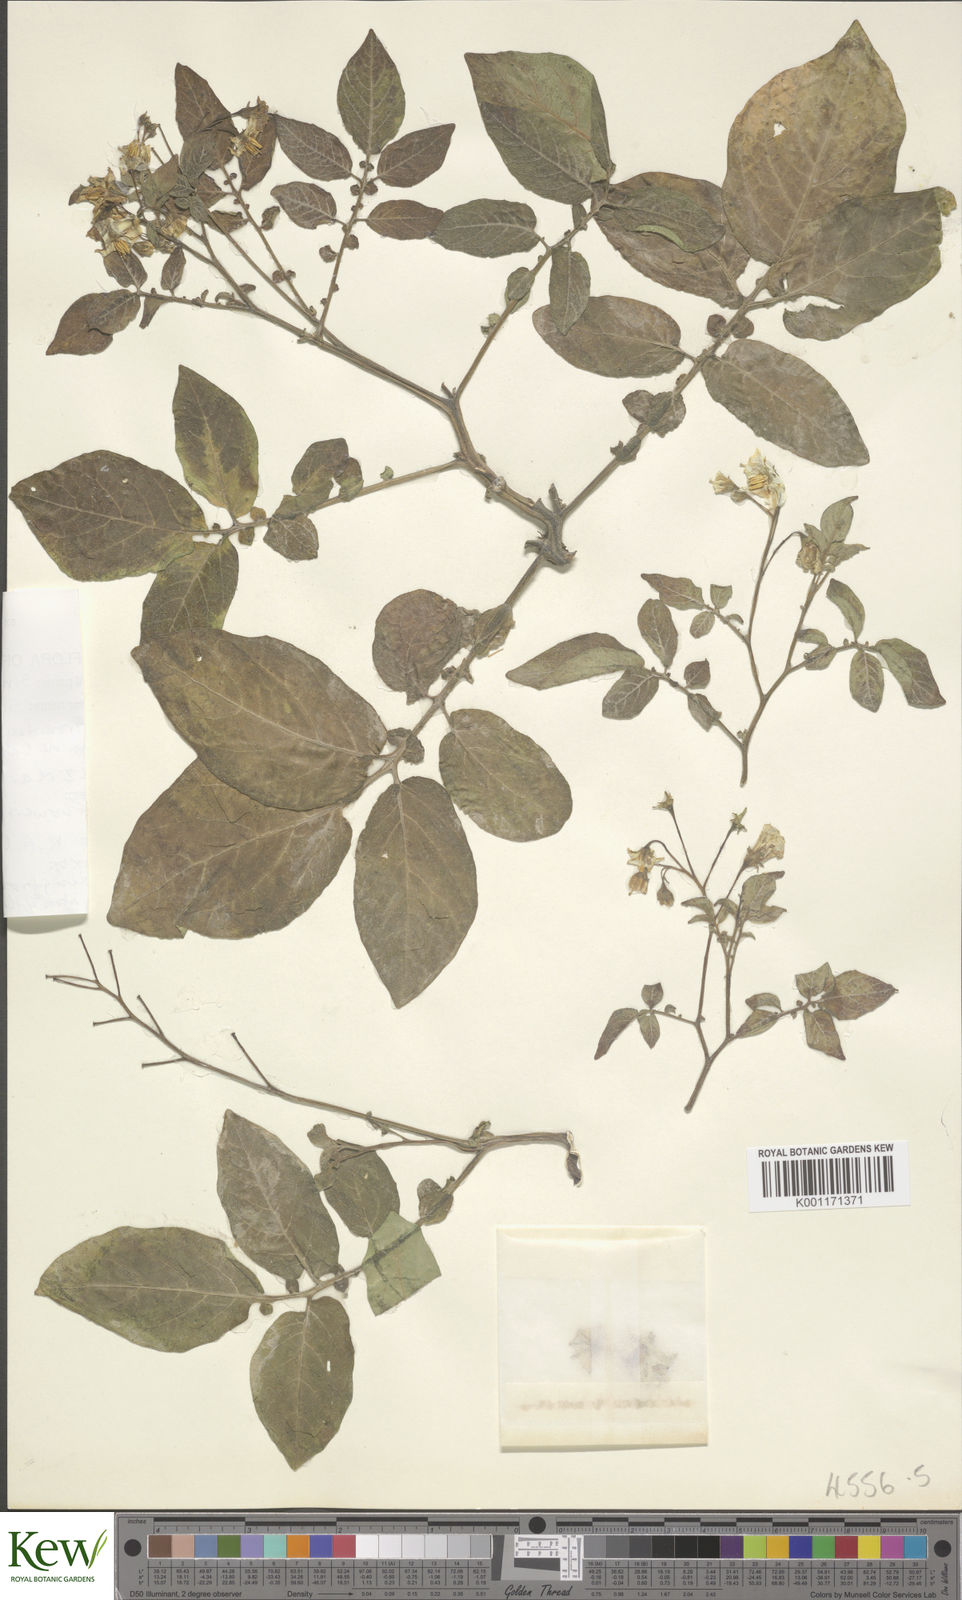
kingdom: Plantae
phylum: Tracheophyta
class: Magnoliopsida
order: Solanales
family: Solanaceae
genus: Solanum
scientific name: Solanum neorossii
